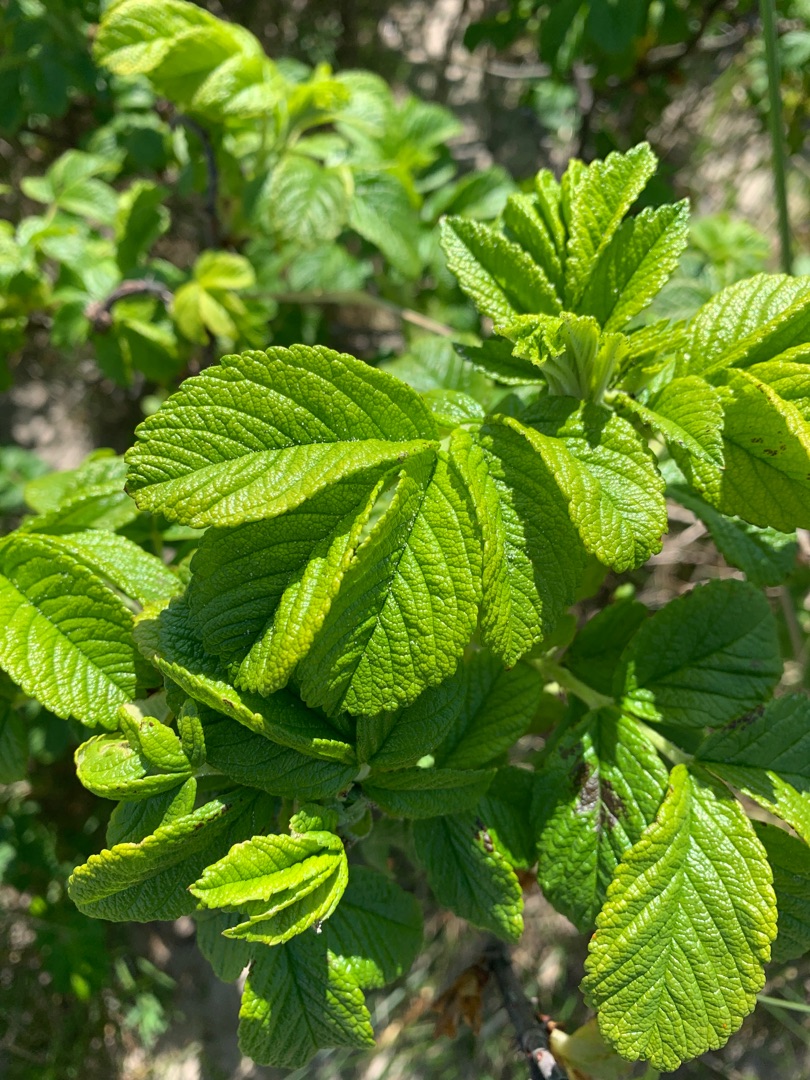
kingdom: Plantae
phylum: Tracheophyta
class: Magnoliopsida
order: Rosales
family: Rosaceae
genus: Rosa
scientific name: Rosa rugosa
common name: Rynket rose
